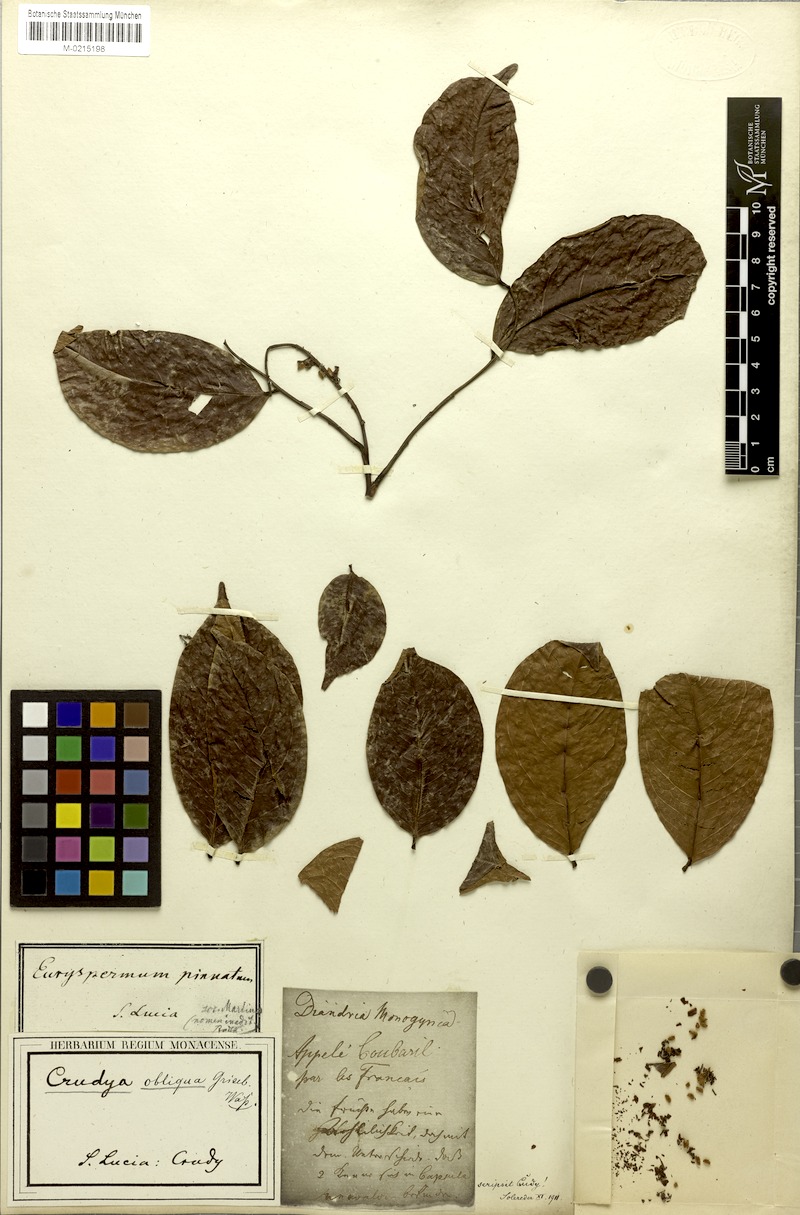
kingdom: Plantae
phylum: Tracheophyta
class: Magnoliopsida
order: Fabales
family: Fabaceae
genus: Crudia
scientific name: Crudia glaberrima
